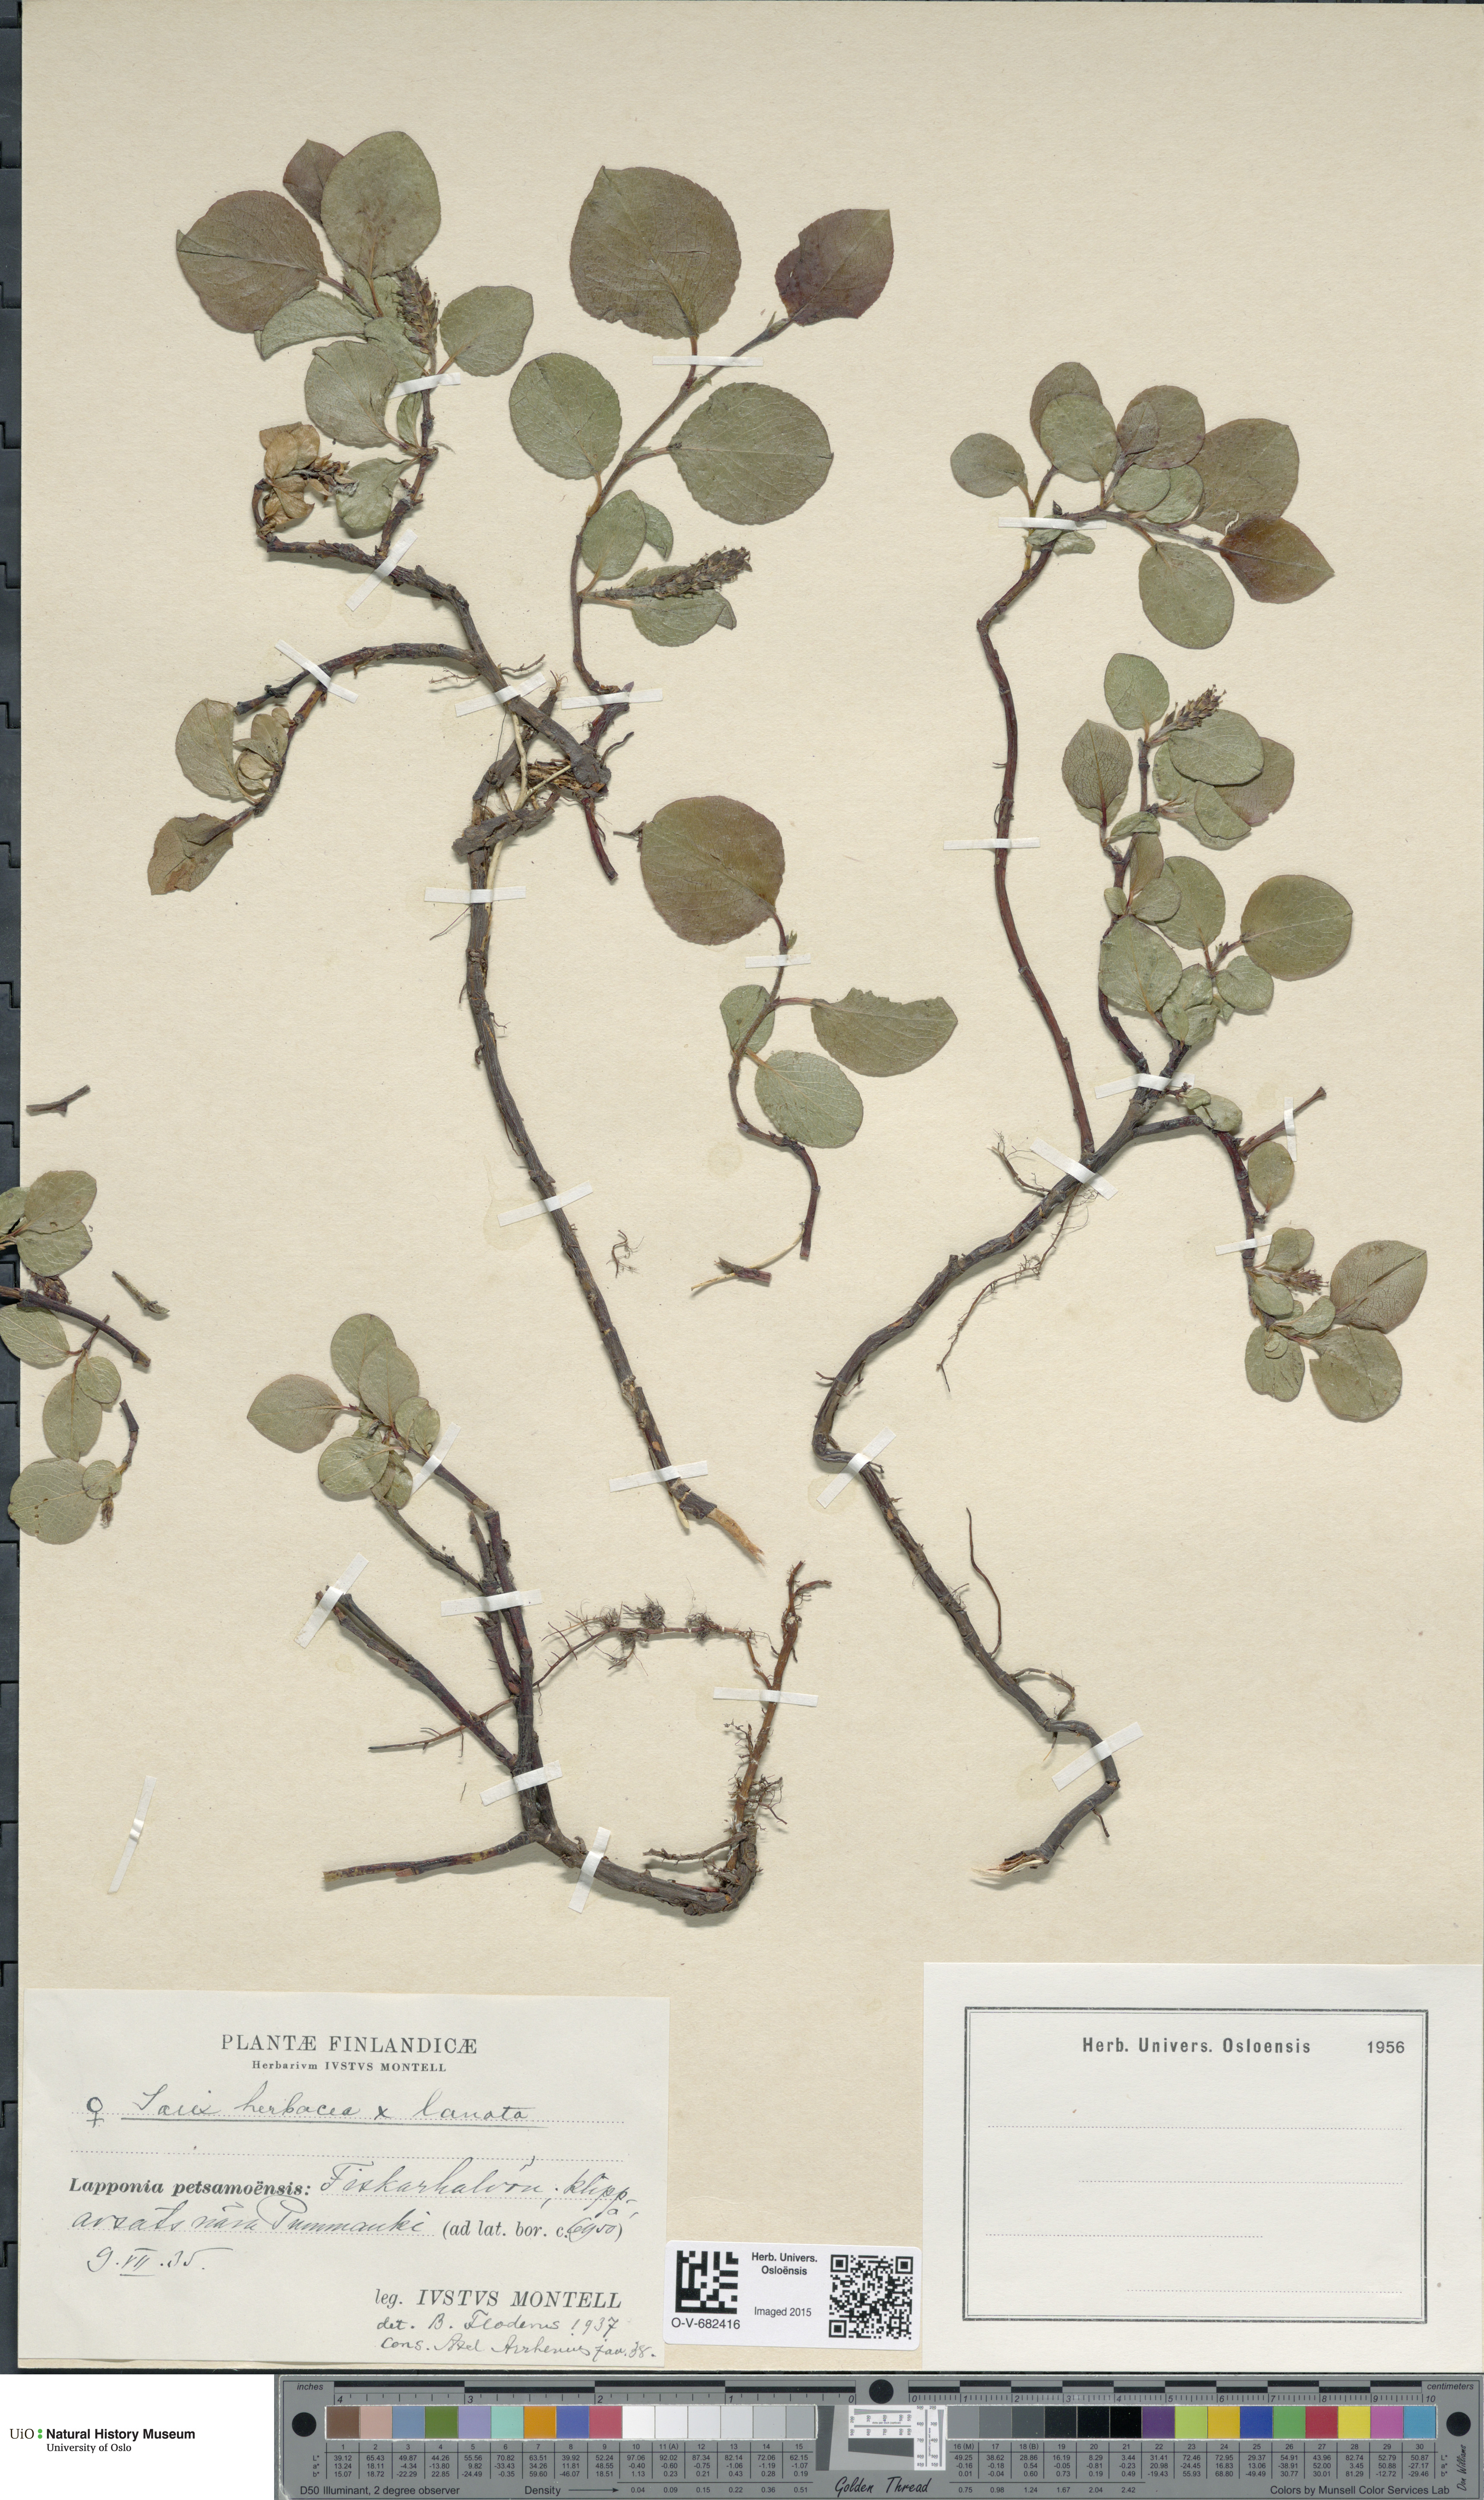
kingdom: Plantae
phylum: Tracheophyta
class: Magnoliopsida
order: Malpighiales
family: Salicaceae
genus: Salix
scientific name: Salix
